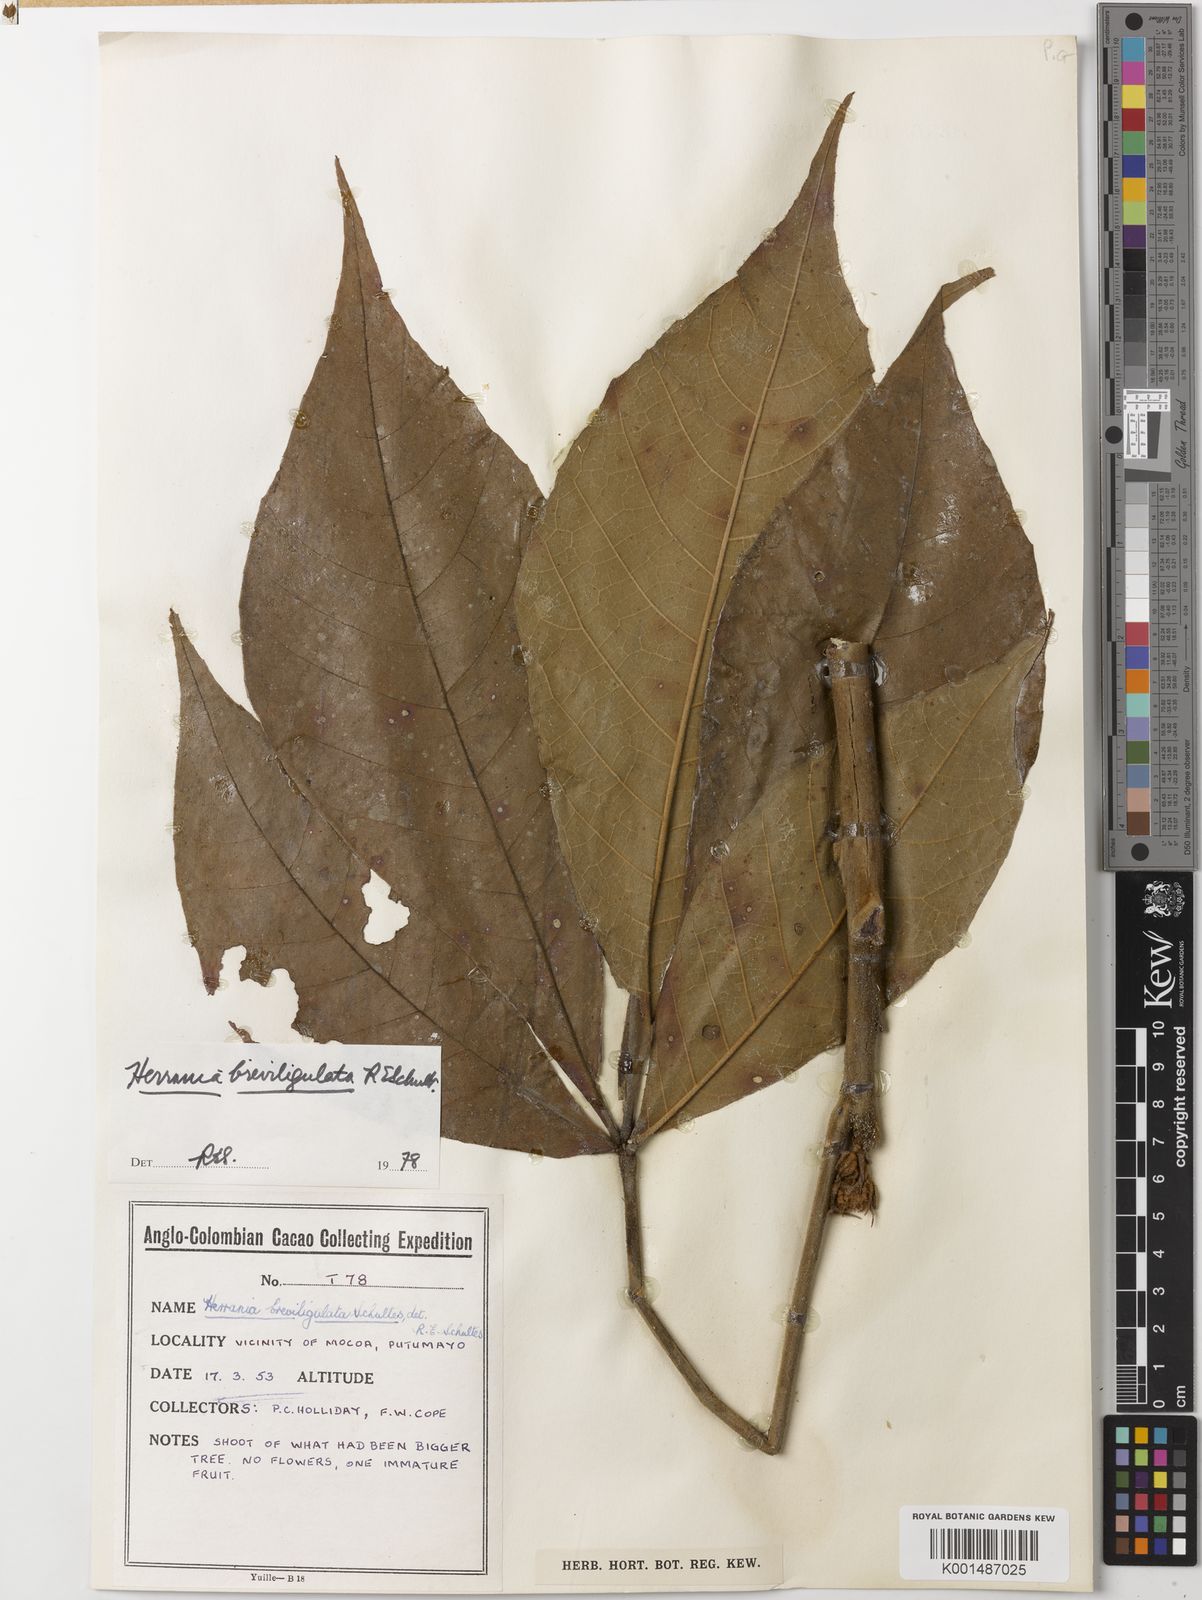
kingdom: Plantae
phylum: Tracheophyta
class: Magnoliopsida
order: Malvales
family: Malvaceae
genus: Herrania
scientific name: Herrania breviligulata
